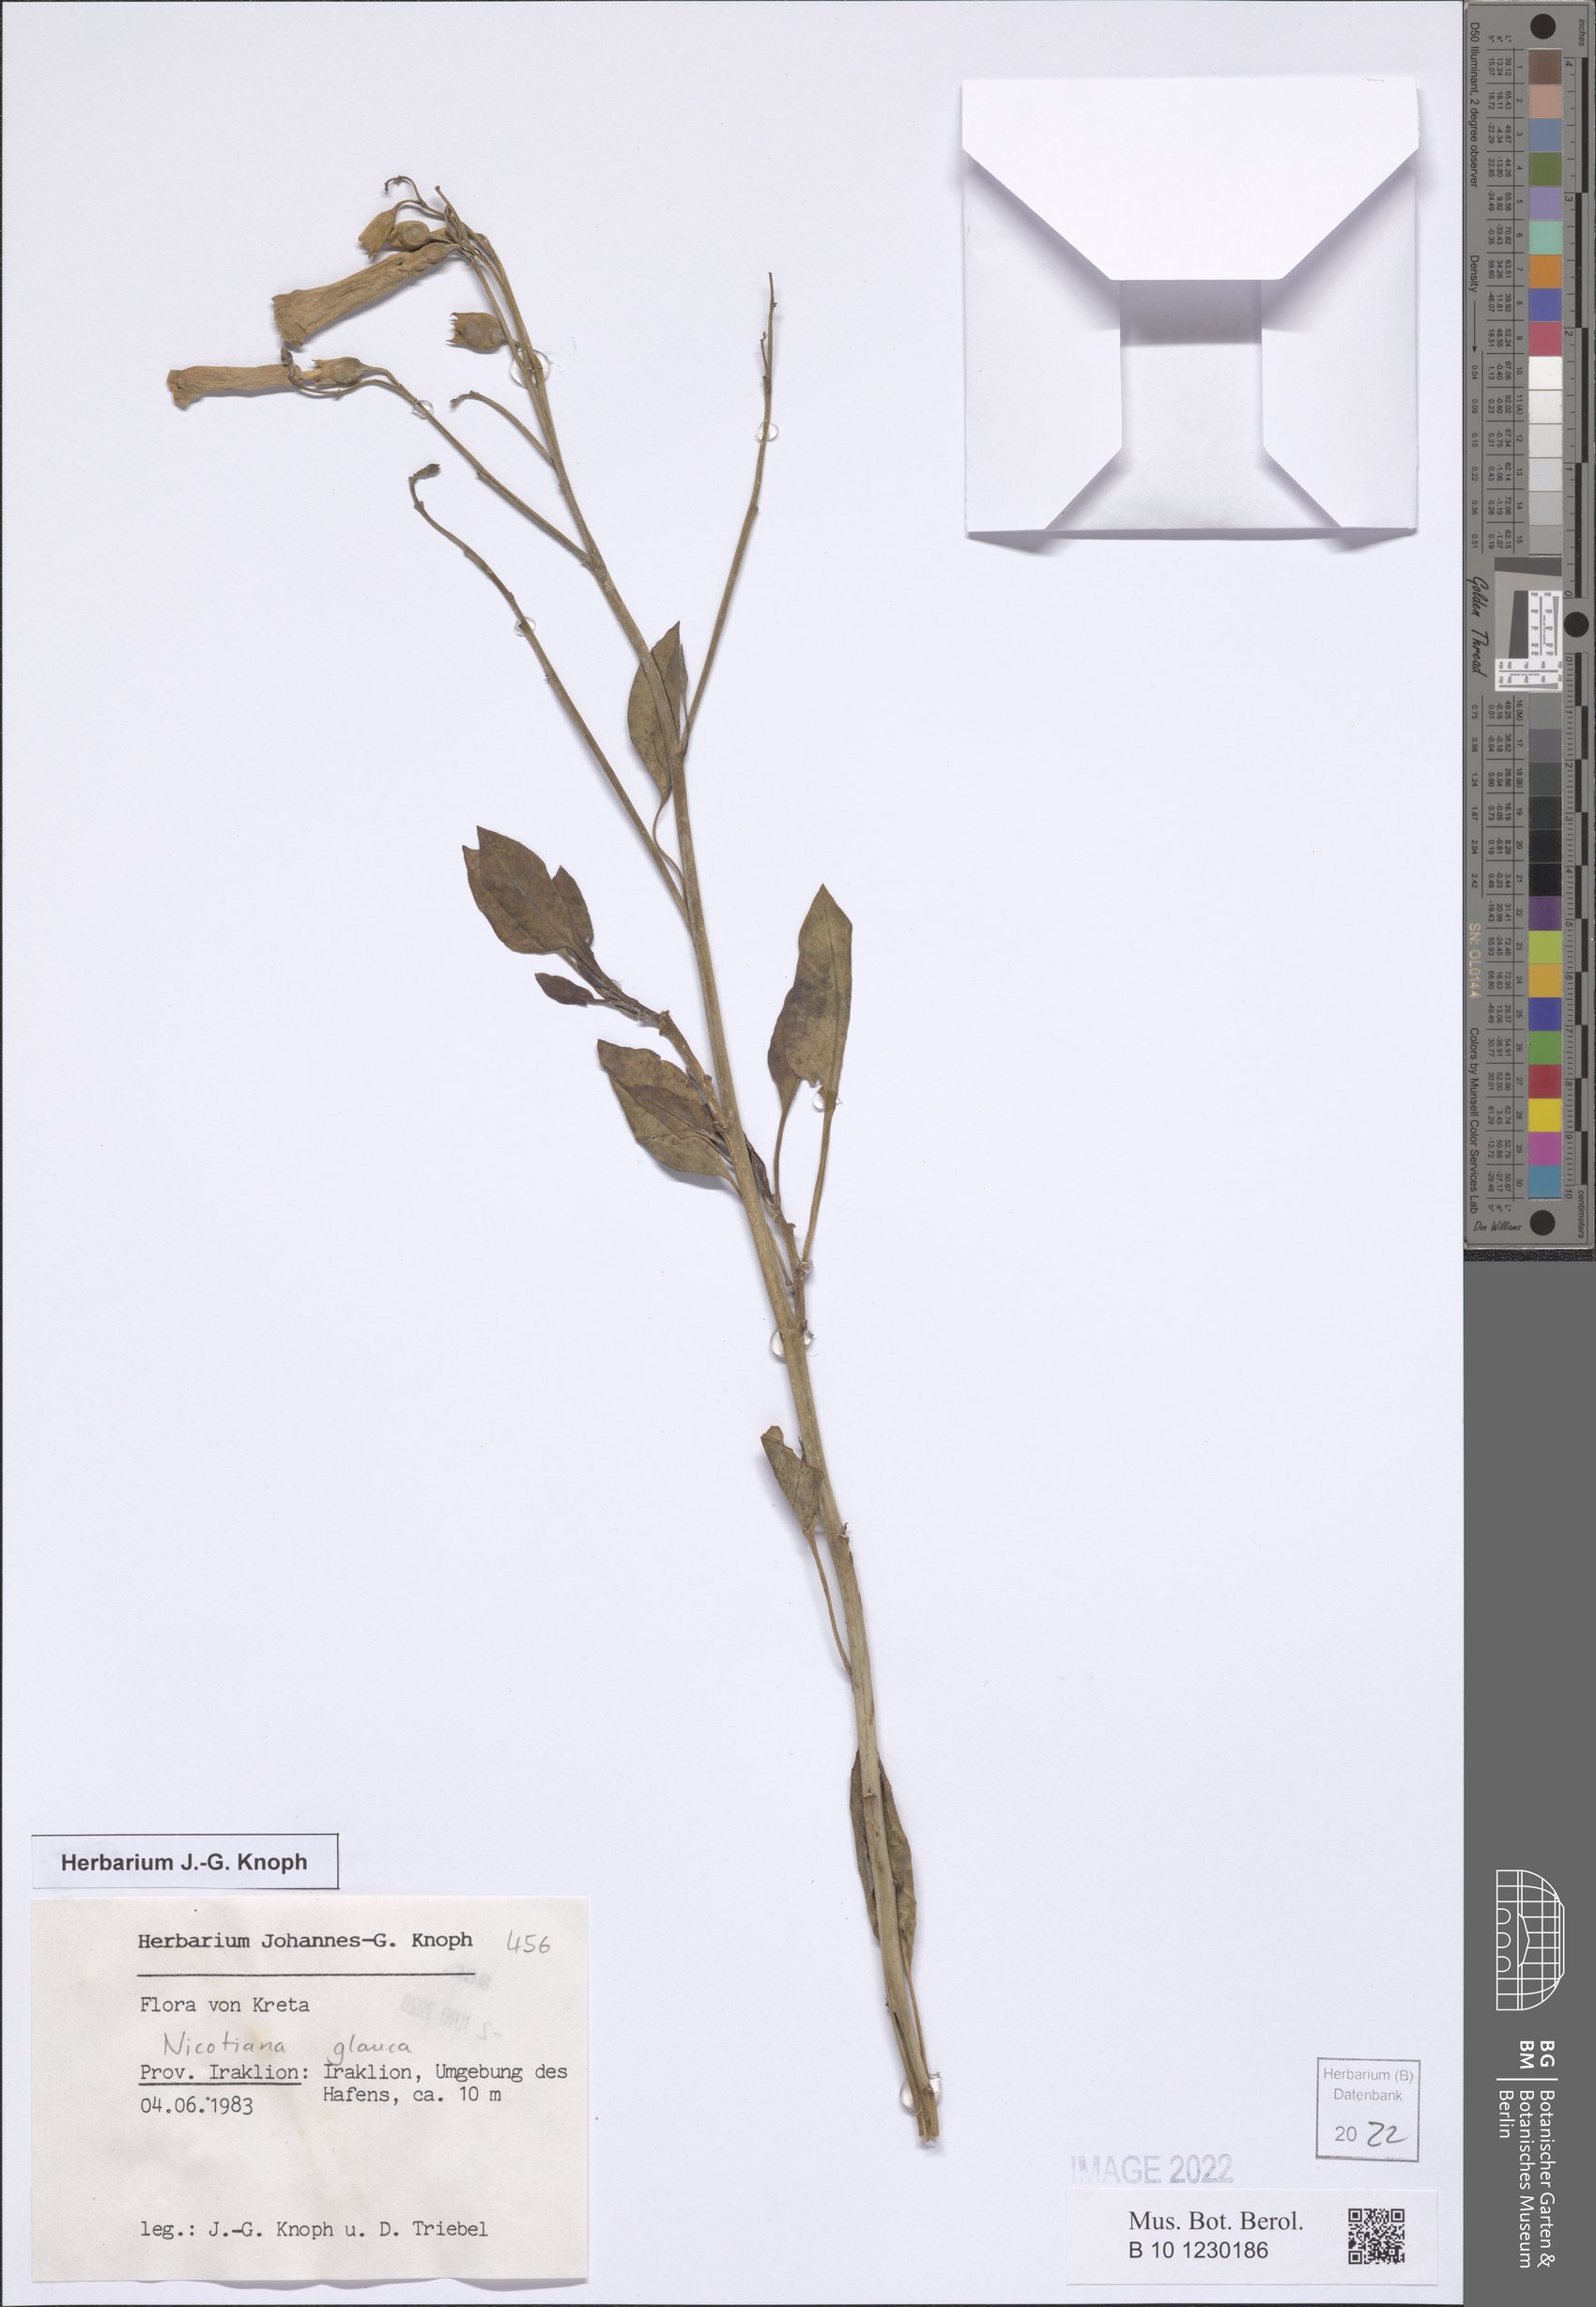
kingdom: Plantae
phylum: Tracheophyta
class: Magnoliopsida
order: Solanales
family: Solanaceae
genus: Nicotiana
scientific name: Nicotiana glauca
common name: Tree tobacco
